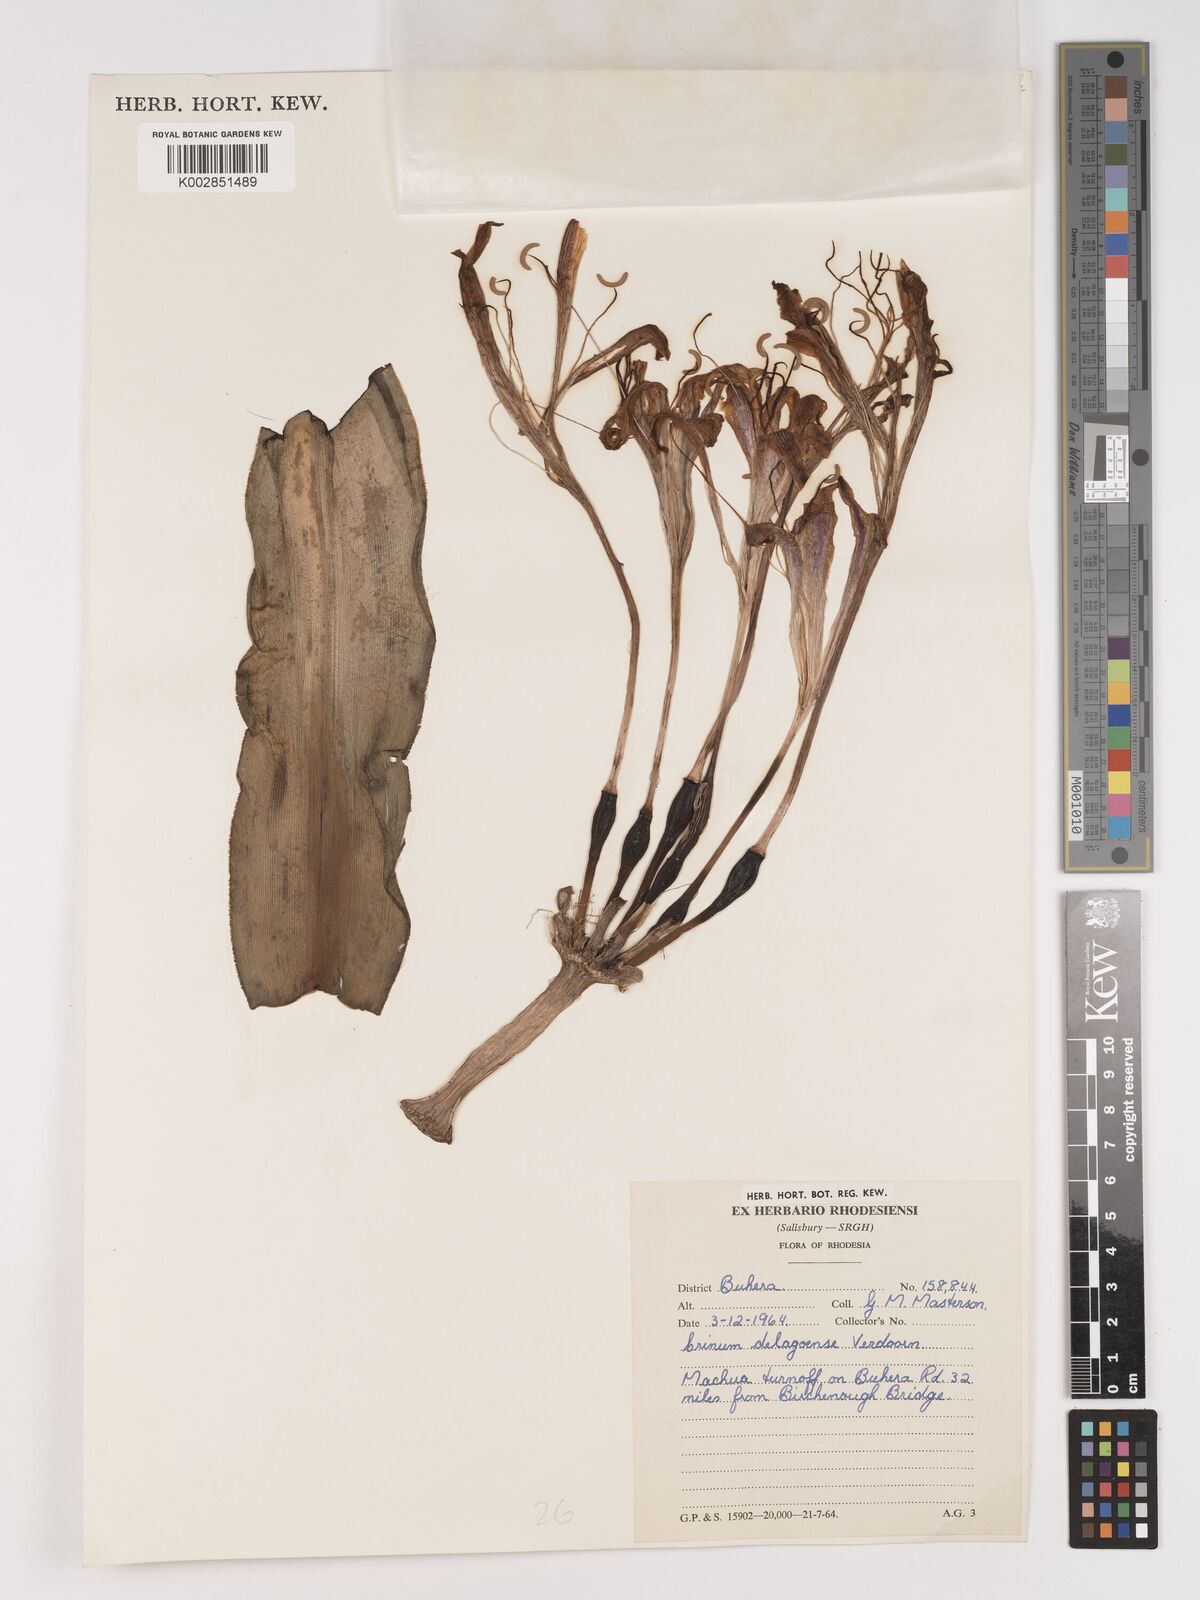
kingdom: Plantae
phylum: Tracheophyta
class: Liliopsida
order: Asparagales
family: Amaryllidaceae
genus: Crinum
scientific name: Crinum stuhlmannii
